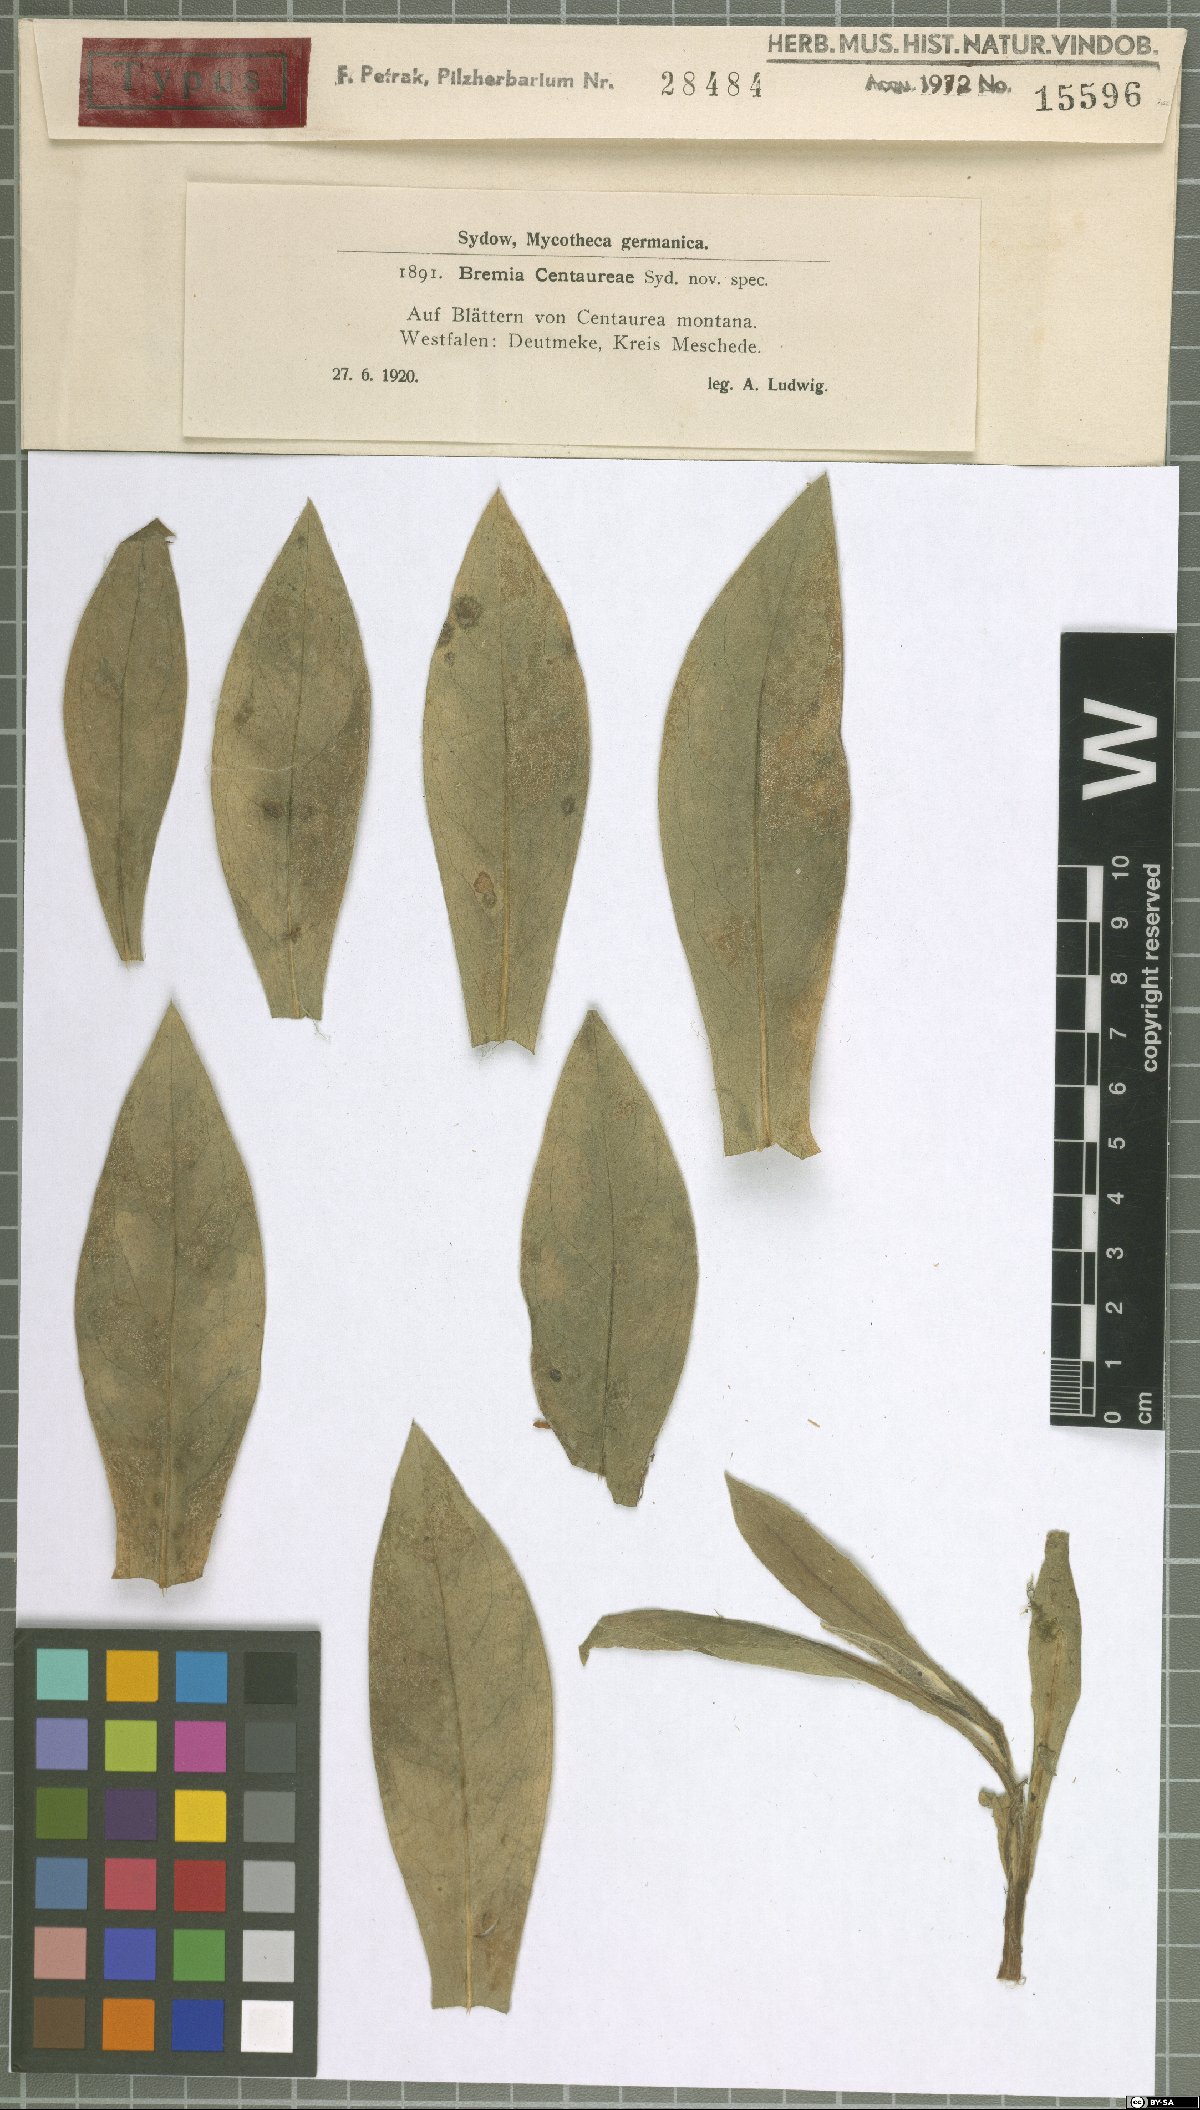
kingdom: Chromista
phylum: Oomycota
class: Peronosporea
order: Peronosporales
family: Peronosporaceae
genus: Bremia
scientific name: Bremia lactucae
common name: Lettuce downy mildew
